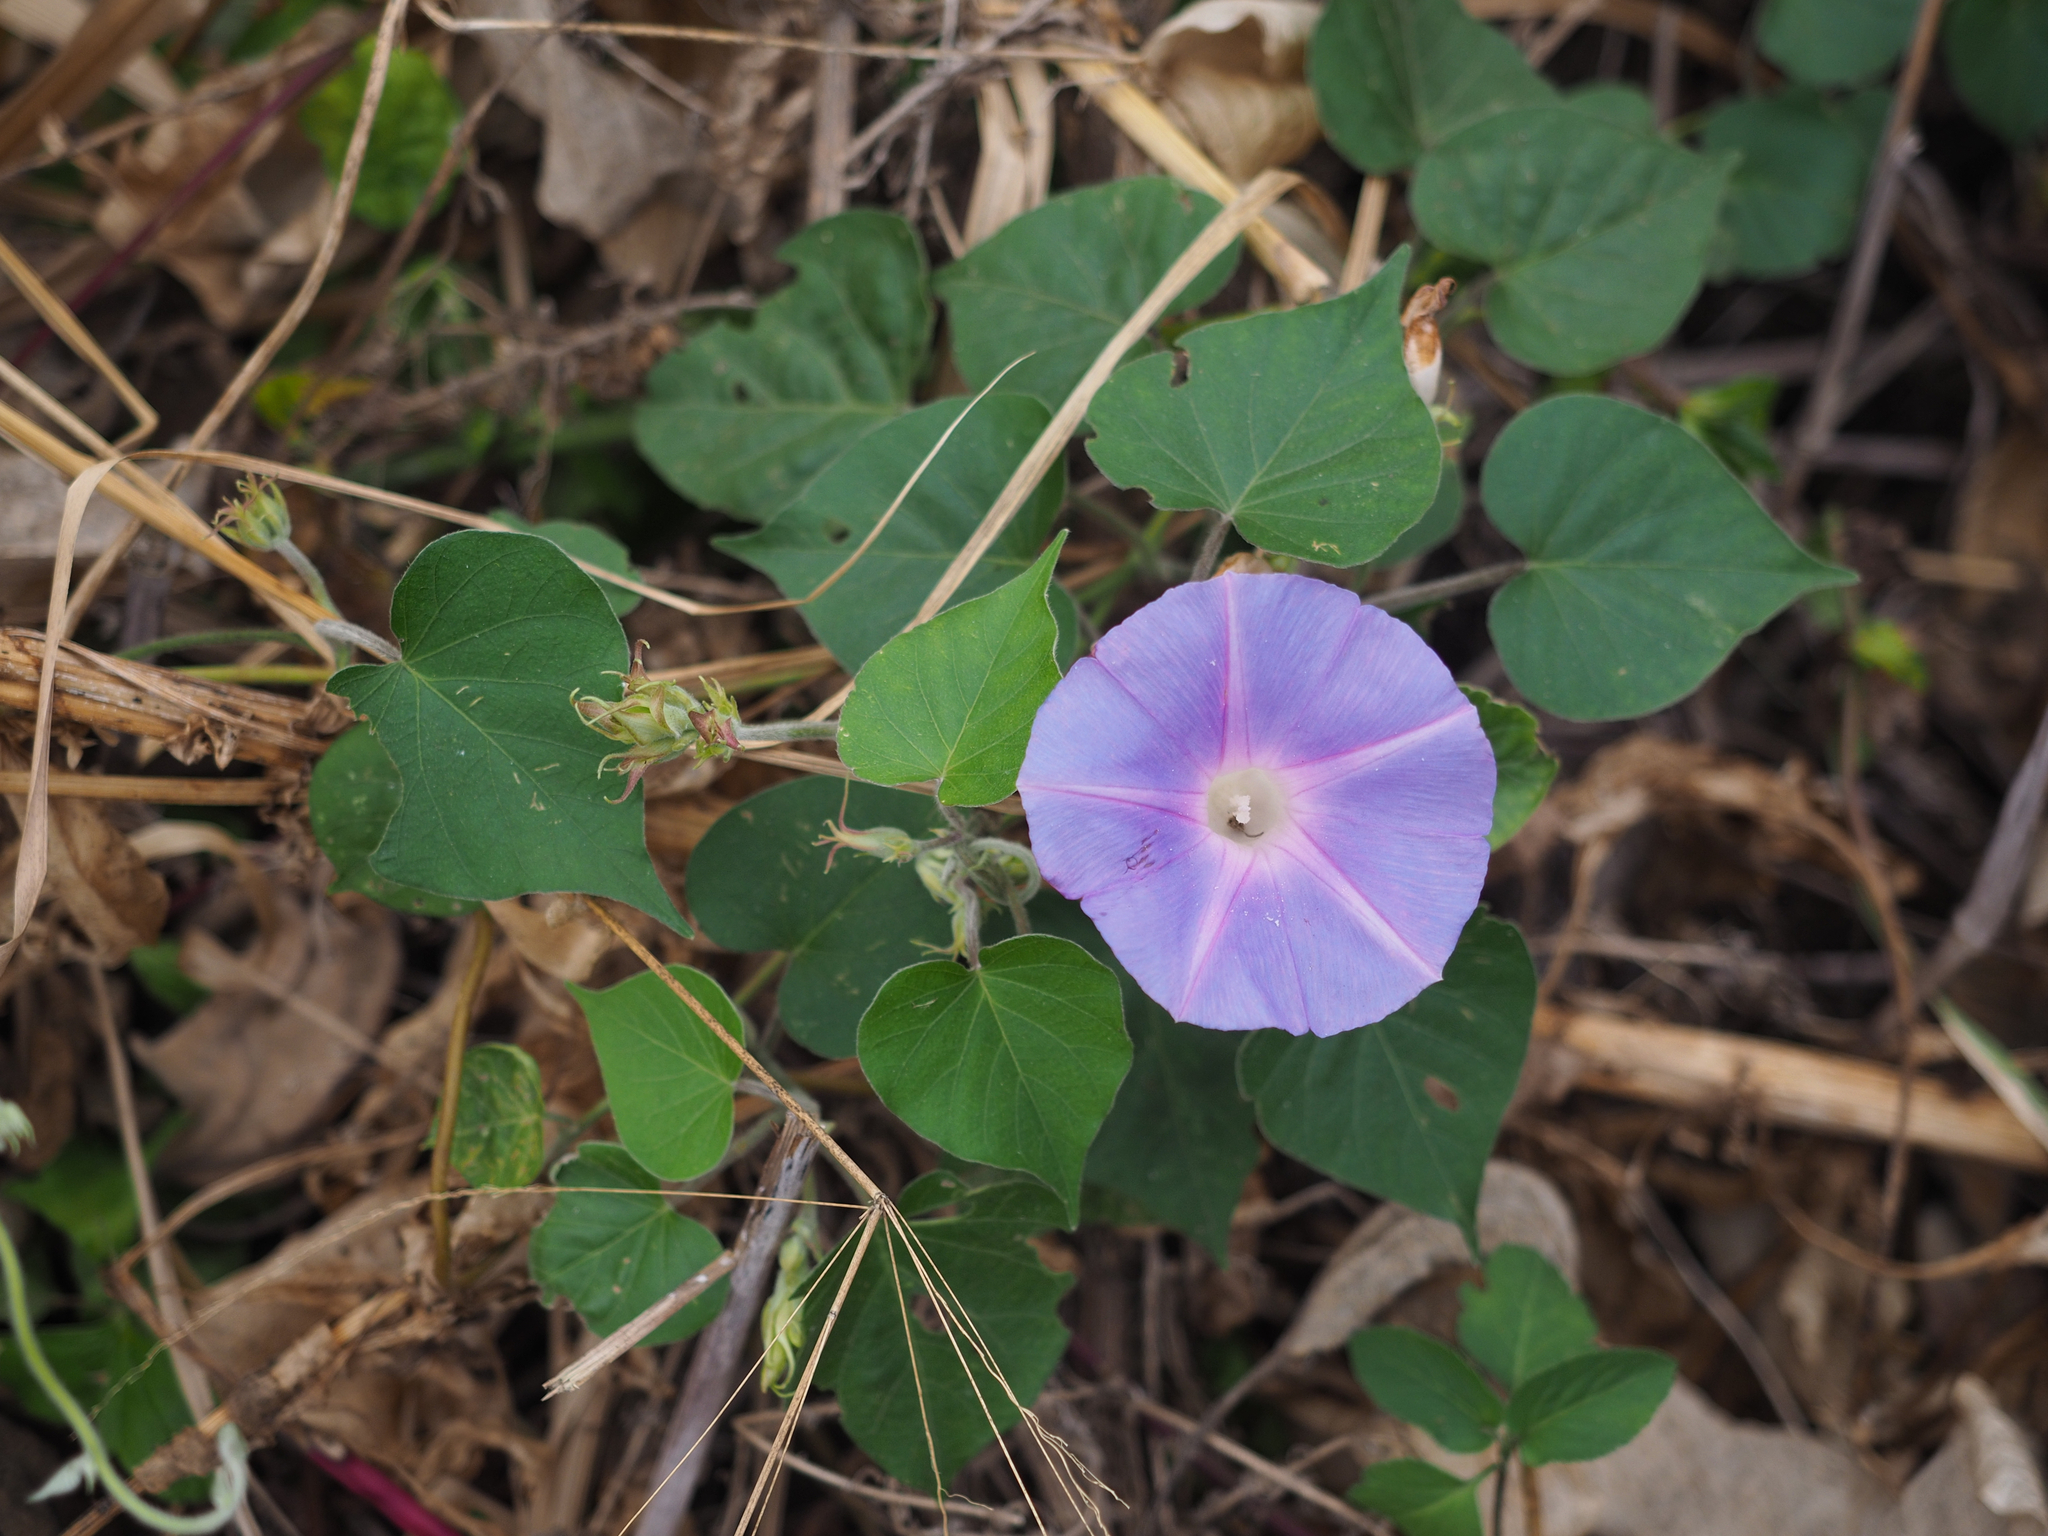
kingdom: Plantae
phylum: Tracheophyta
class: Magnoliopsida
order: Solanales
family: Convolvulaceae
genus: Ipomoea
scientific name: Ipomoea indica
